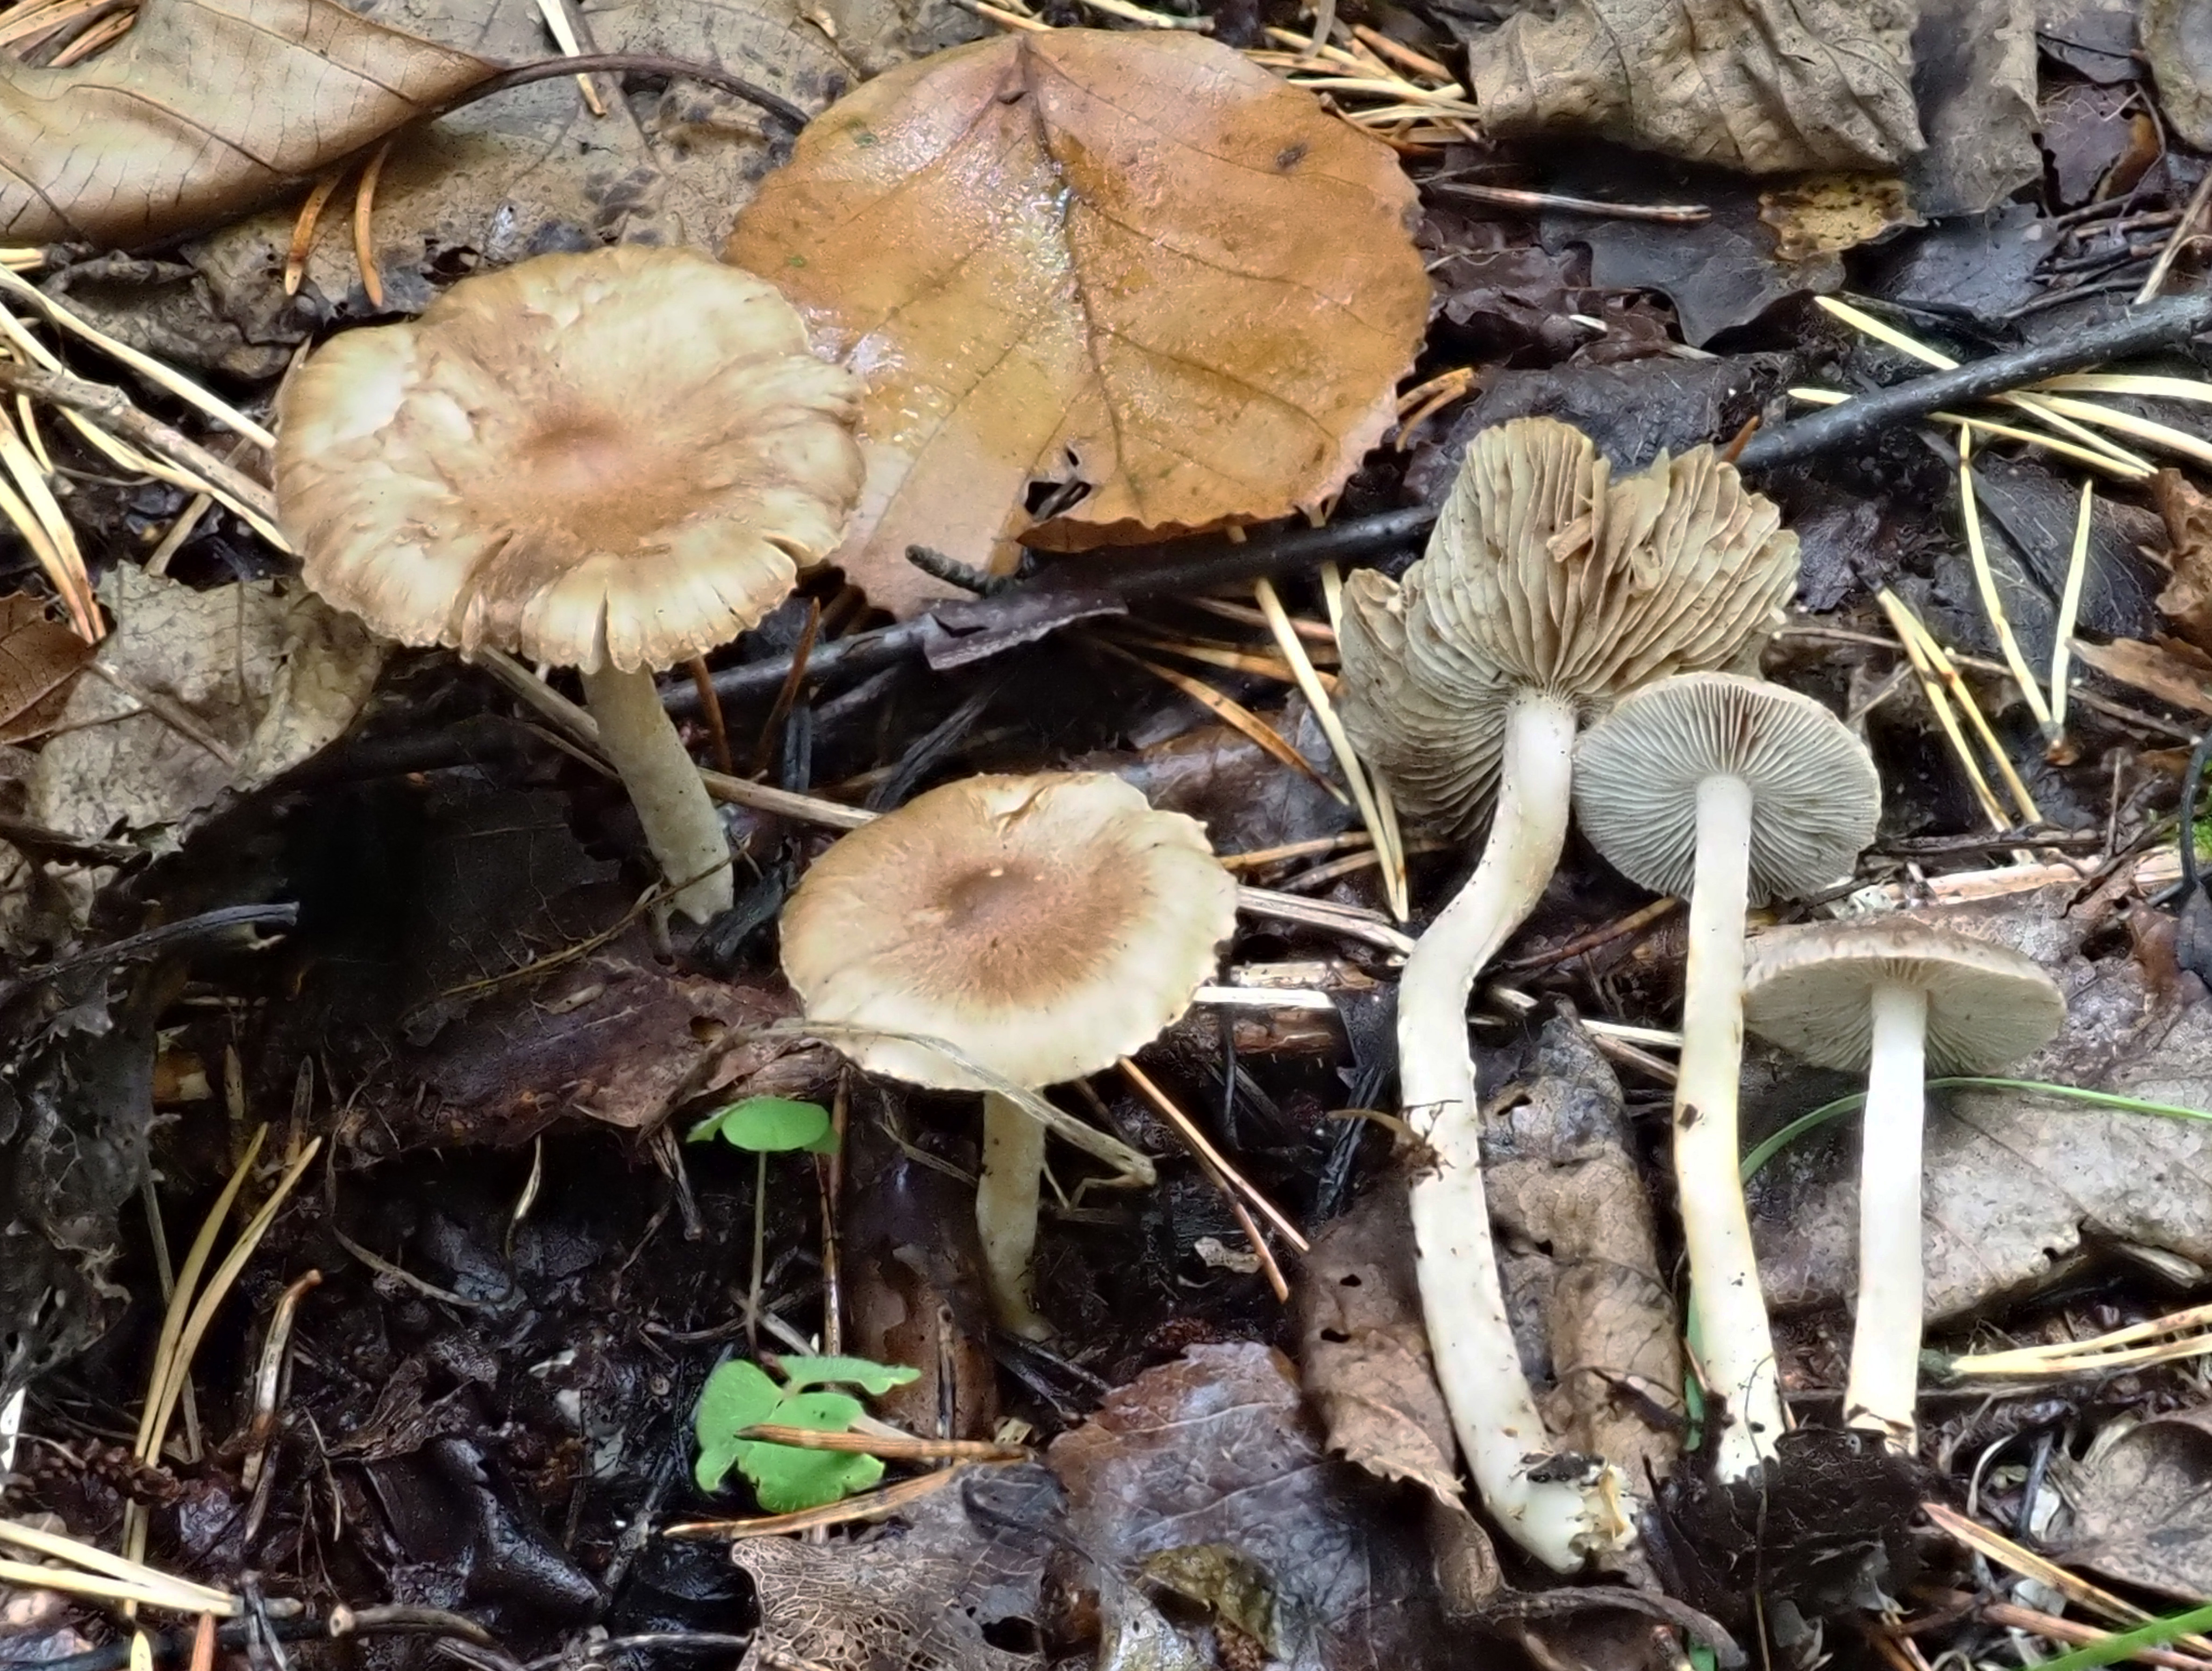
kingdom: Fungi
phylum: Basidiomycota
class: Agaricomycetes
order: Agaricales
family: Inocybaceae
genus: Inocybe
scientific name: Inocybe
